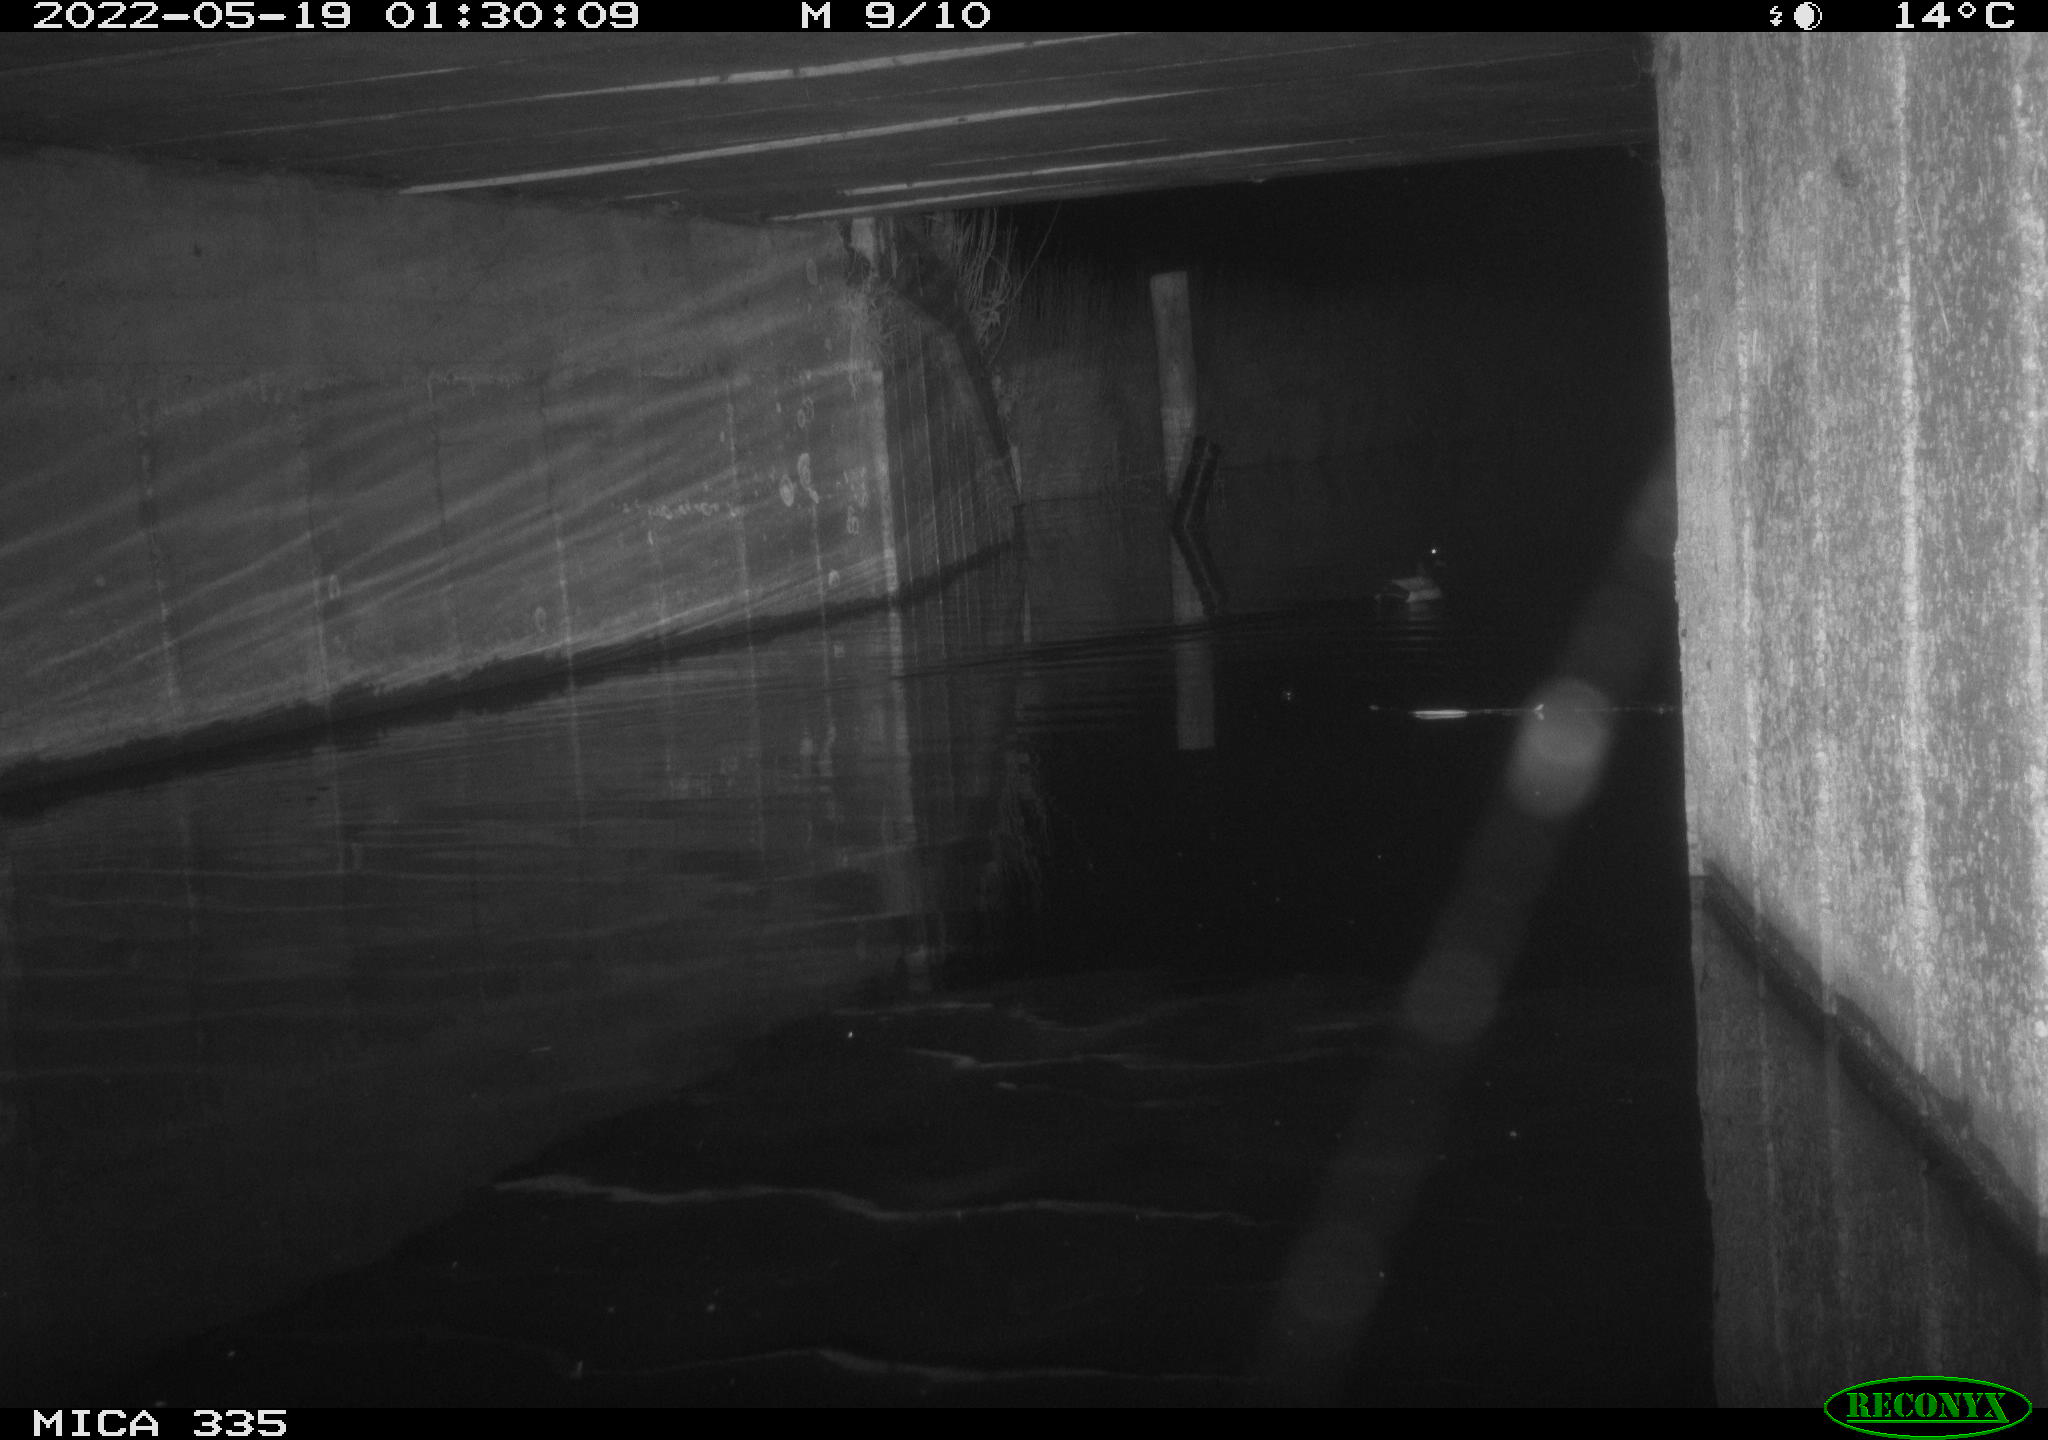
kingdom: Animalia
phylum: Chordata
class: Aves
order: Anseriformes
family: Anatidae
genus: Anas
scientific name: Anas platyrhynchos
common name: Mallard
